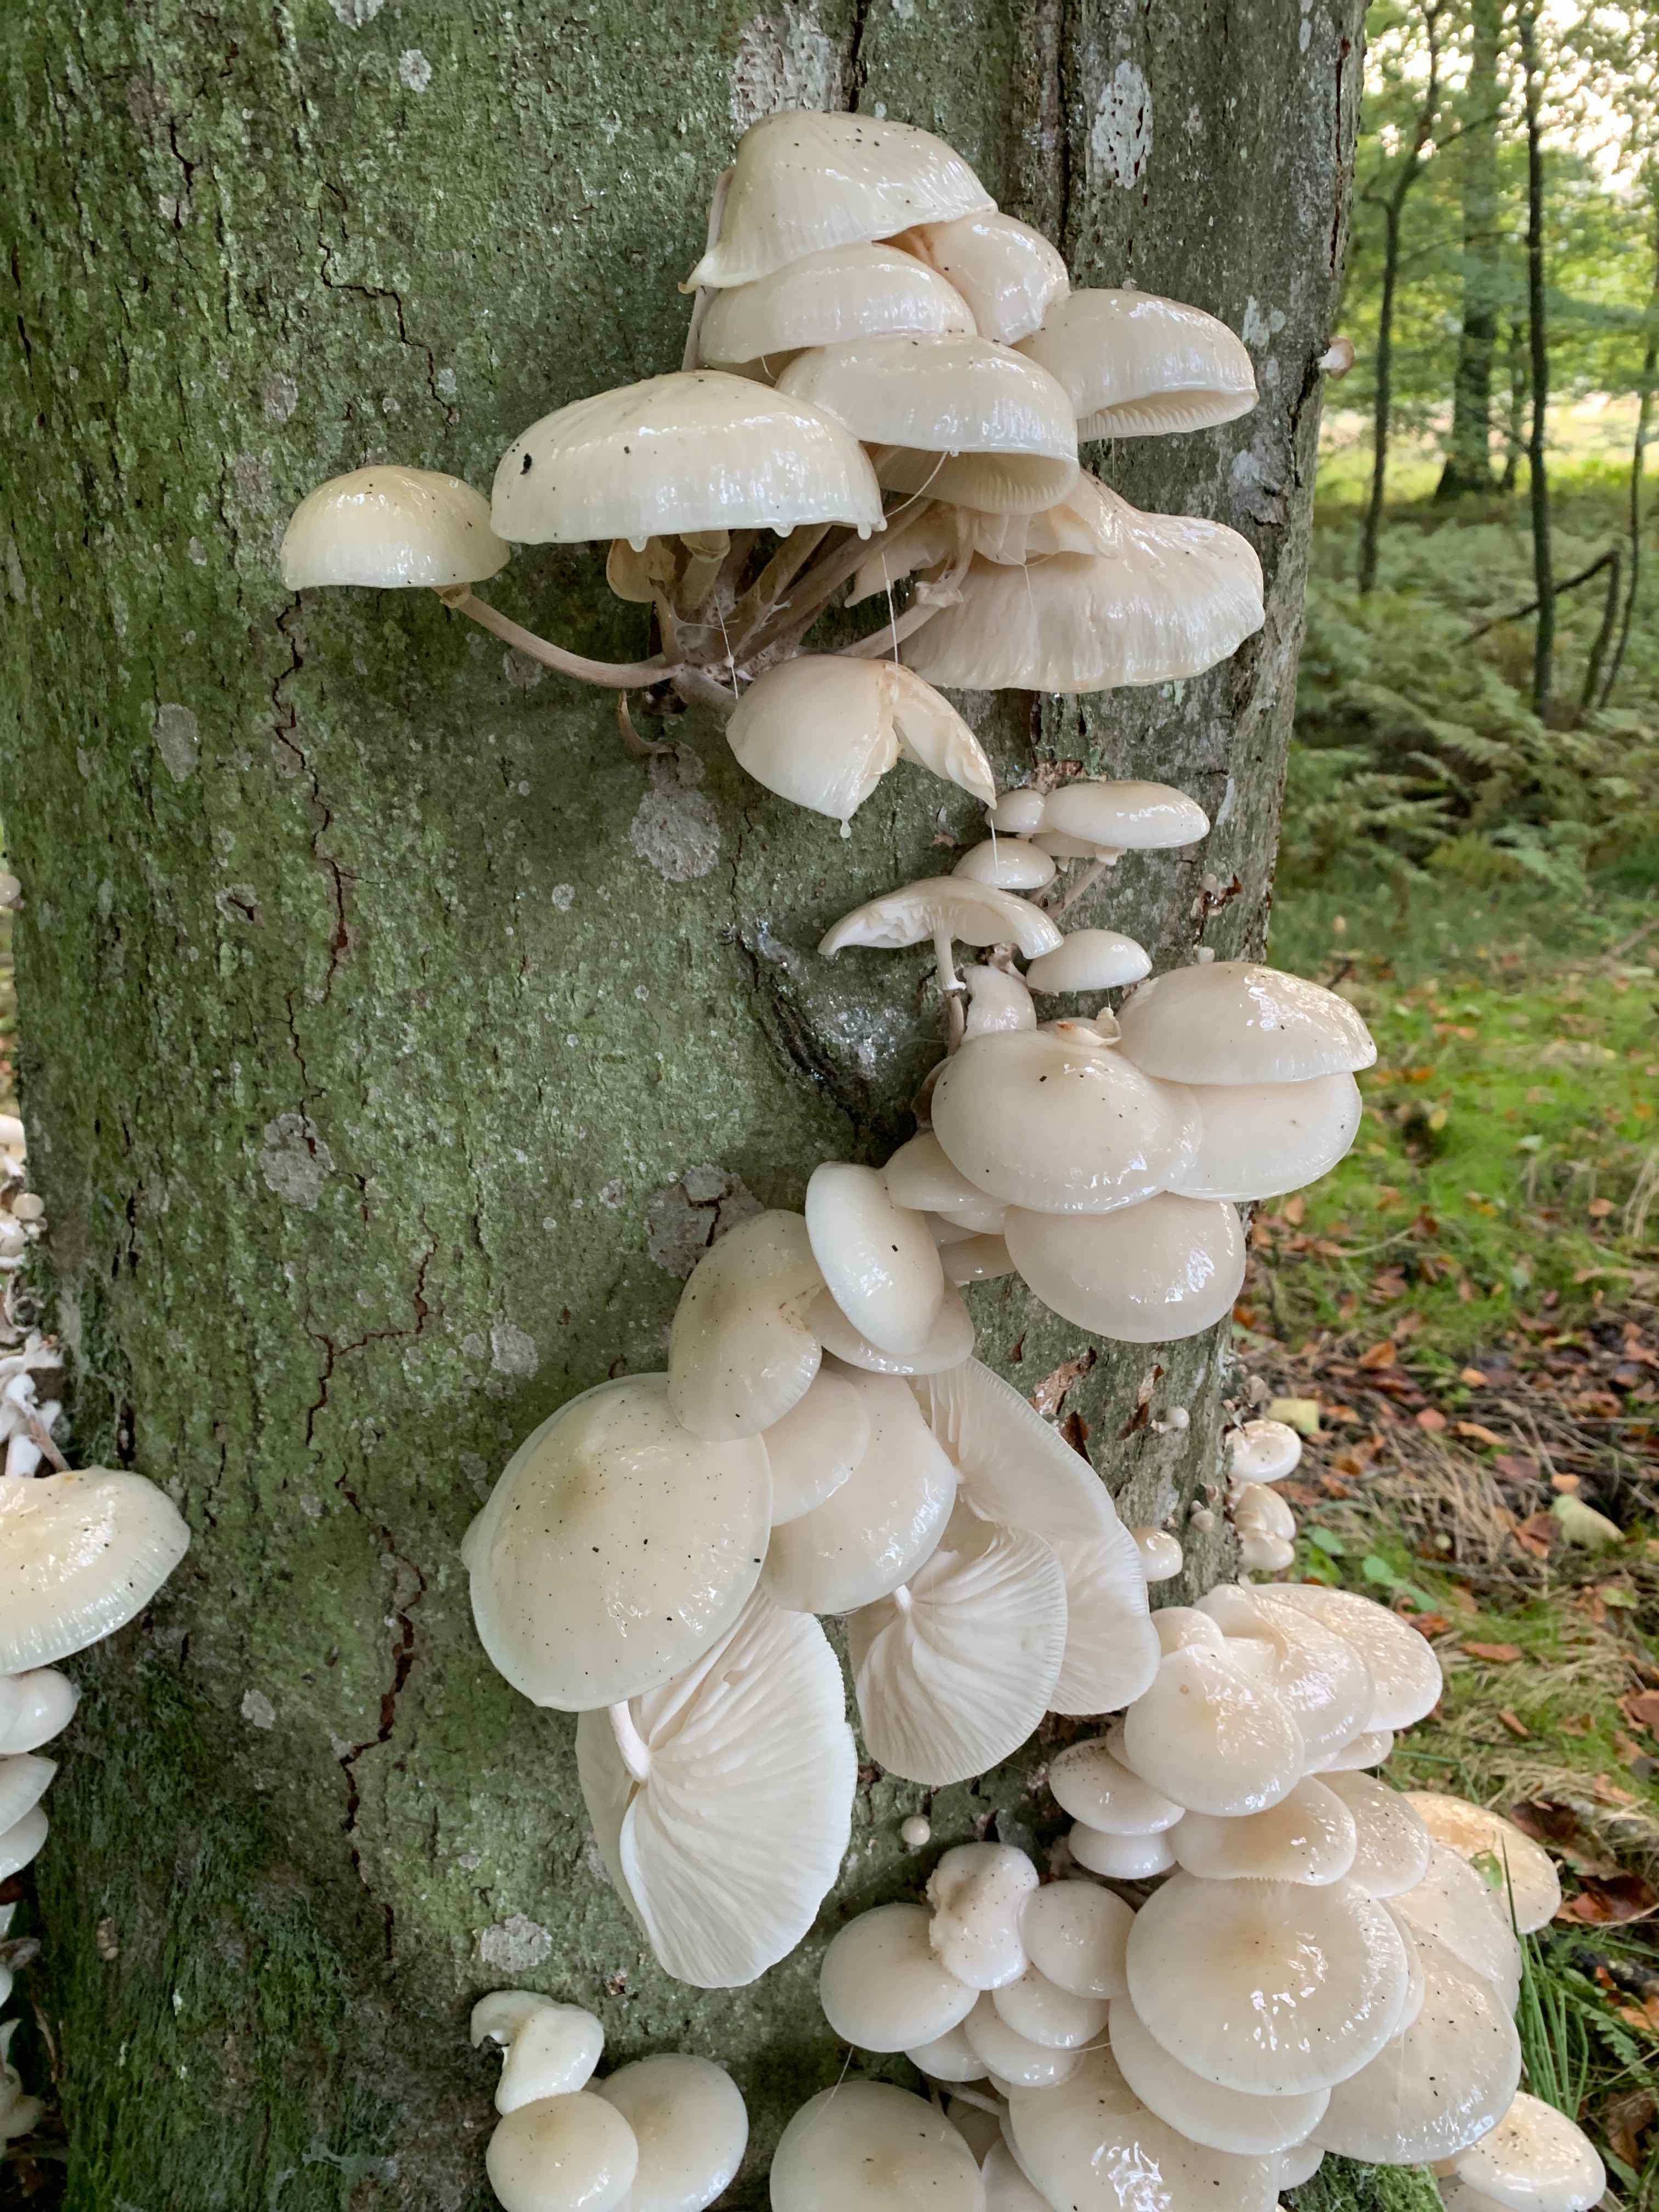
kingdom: Fungi
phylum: Basidiomycota
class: Agaricomycetes
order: Agaricales
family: Physalacriaceae
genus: Mucidula
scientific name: Mucidula mucida
